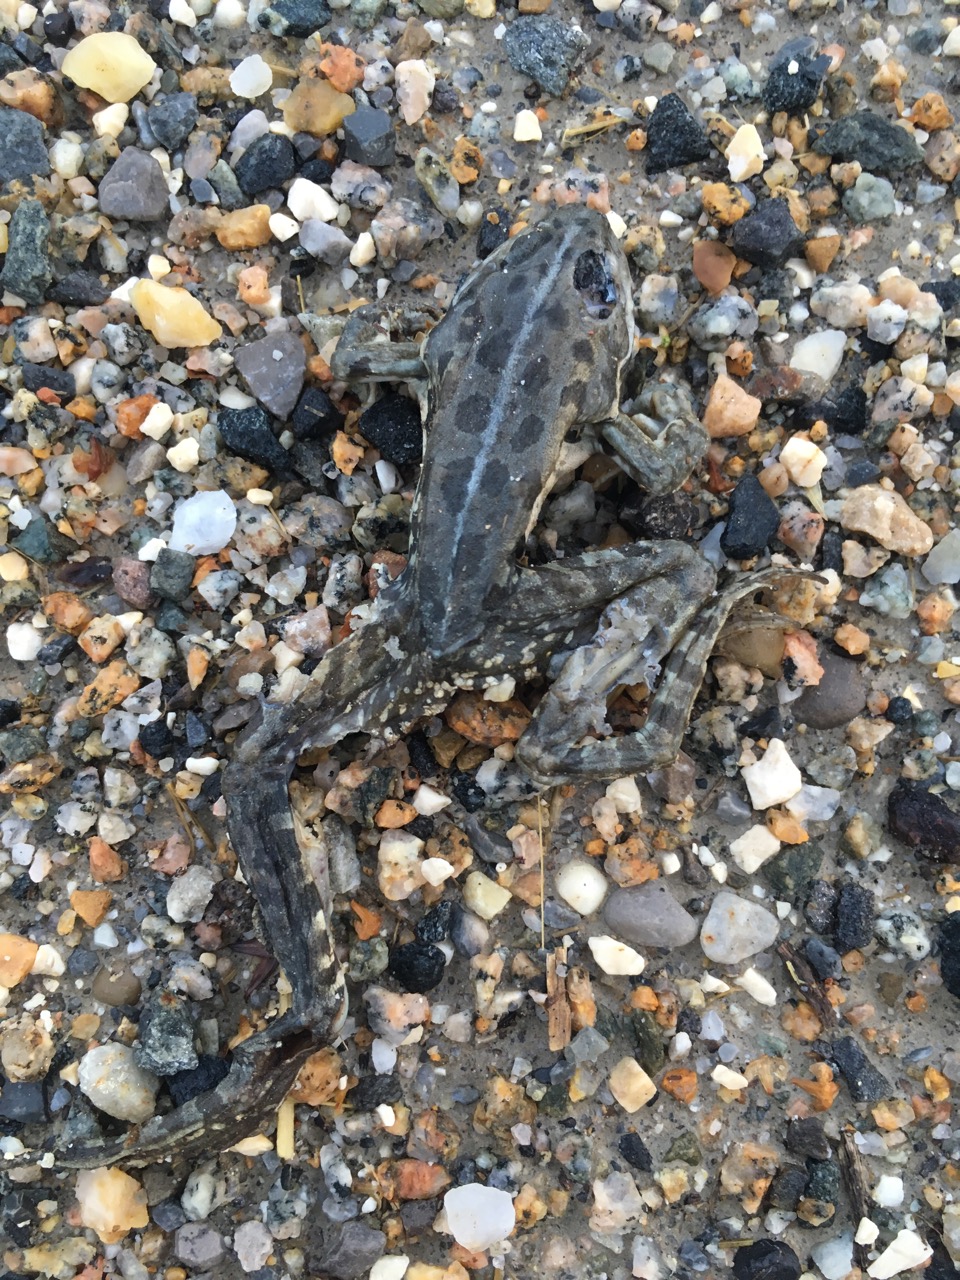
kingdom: Animalia
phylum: Chordata
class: Amphibia
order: Anura
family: Ranidae
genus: Pelophylax
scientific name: Pelophylax
